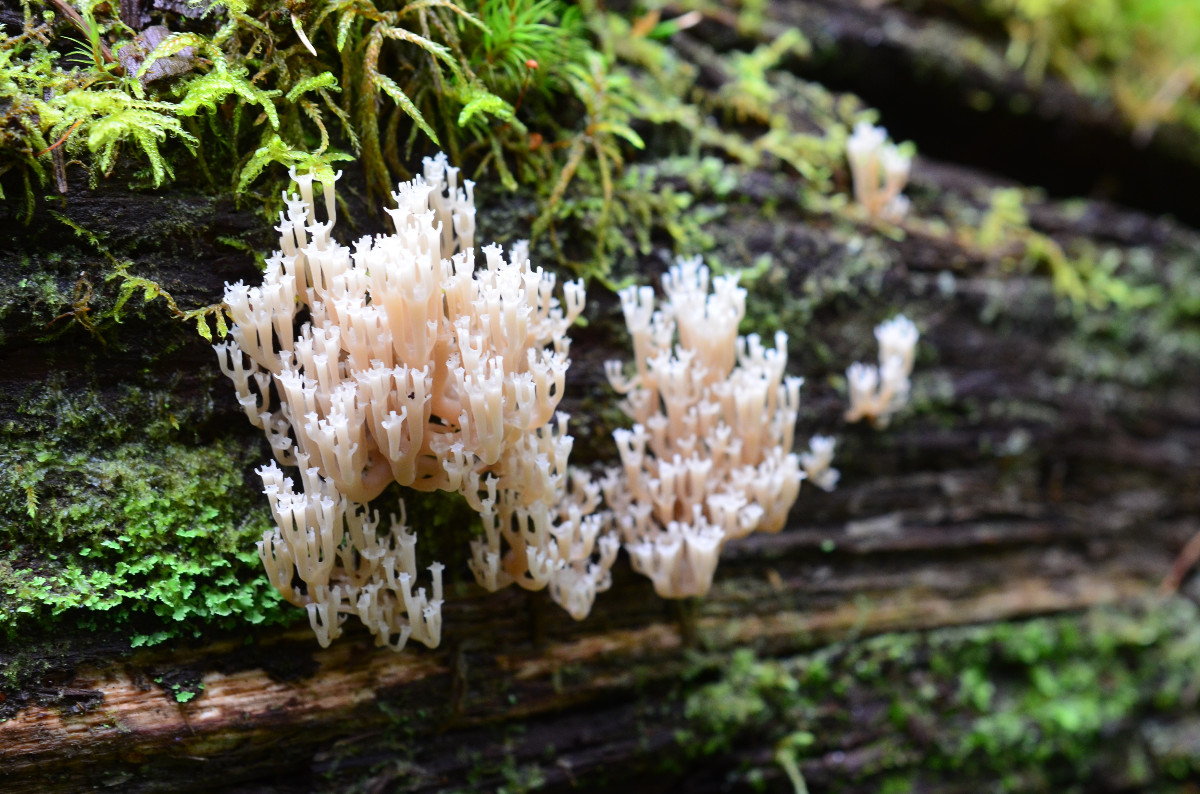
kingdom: Fungi
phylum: Basidiomycota
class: Agaricomycetes
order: Russulales
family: Auriscalpiaceae
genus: Artomyces
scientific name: Artomyces pyxidatus
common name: kandelabersvamp
